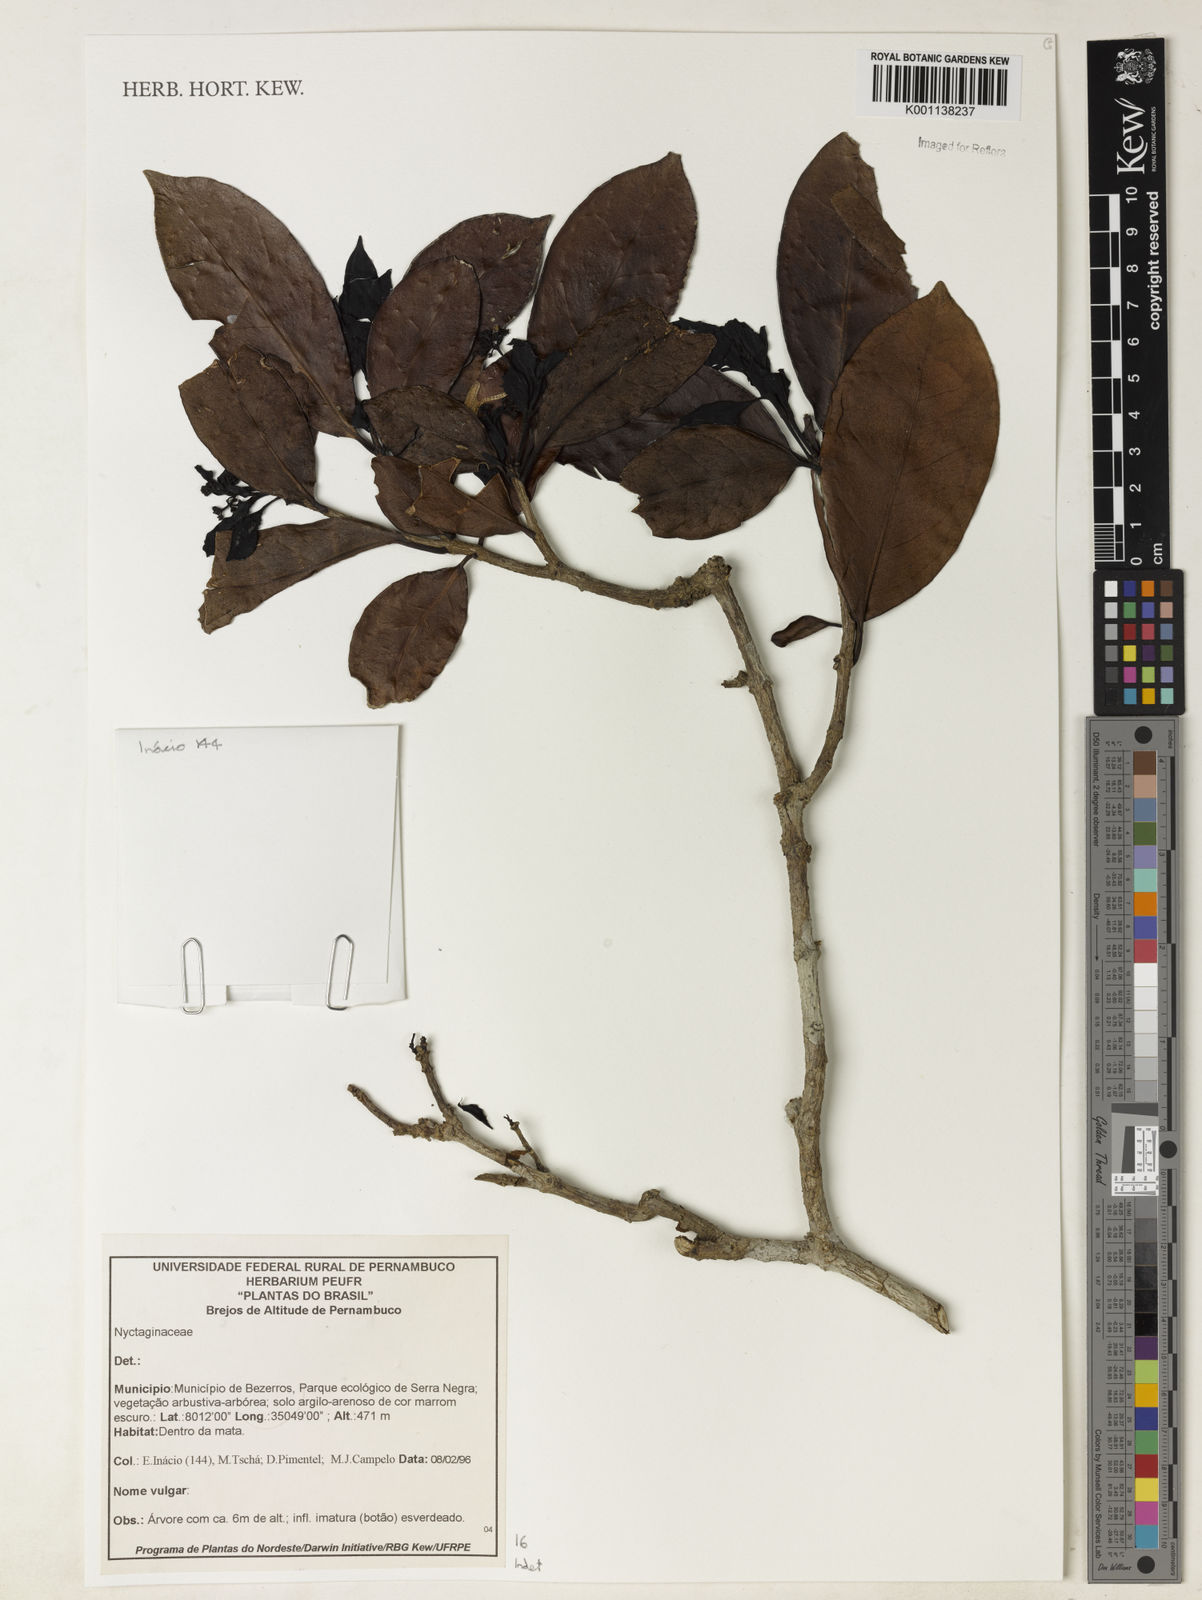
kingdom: Plantae
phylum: Tracheophyta
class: Magnoliopsida
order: Caryophyllales
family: Nyctaginaceae
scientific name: Nyctaginaceae
